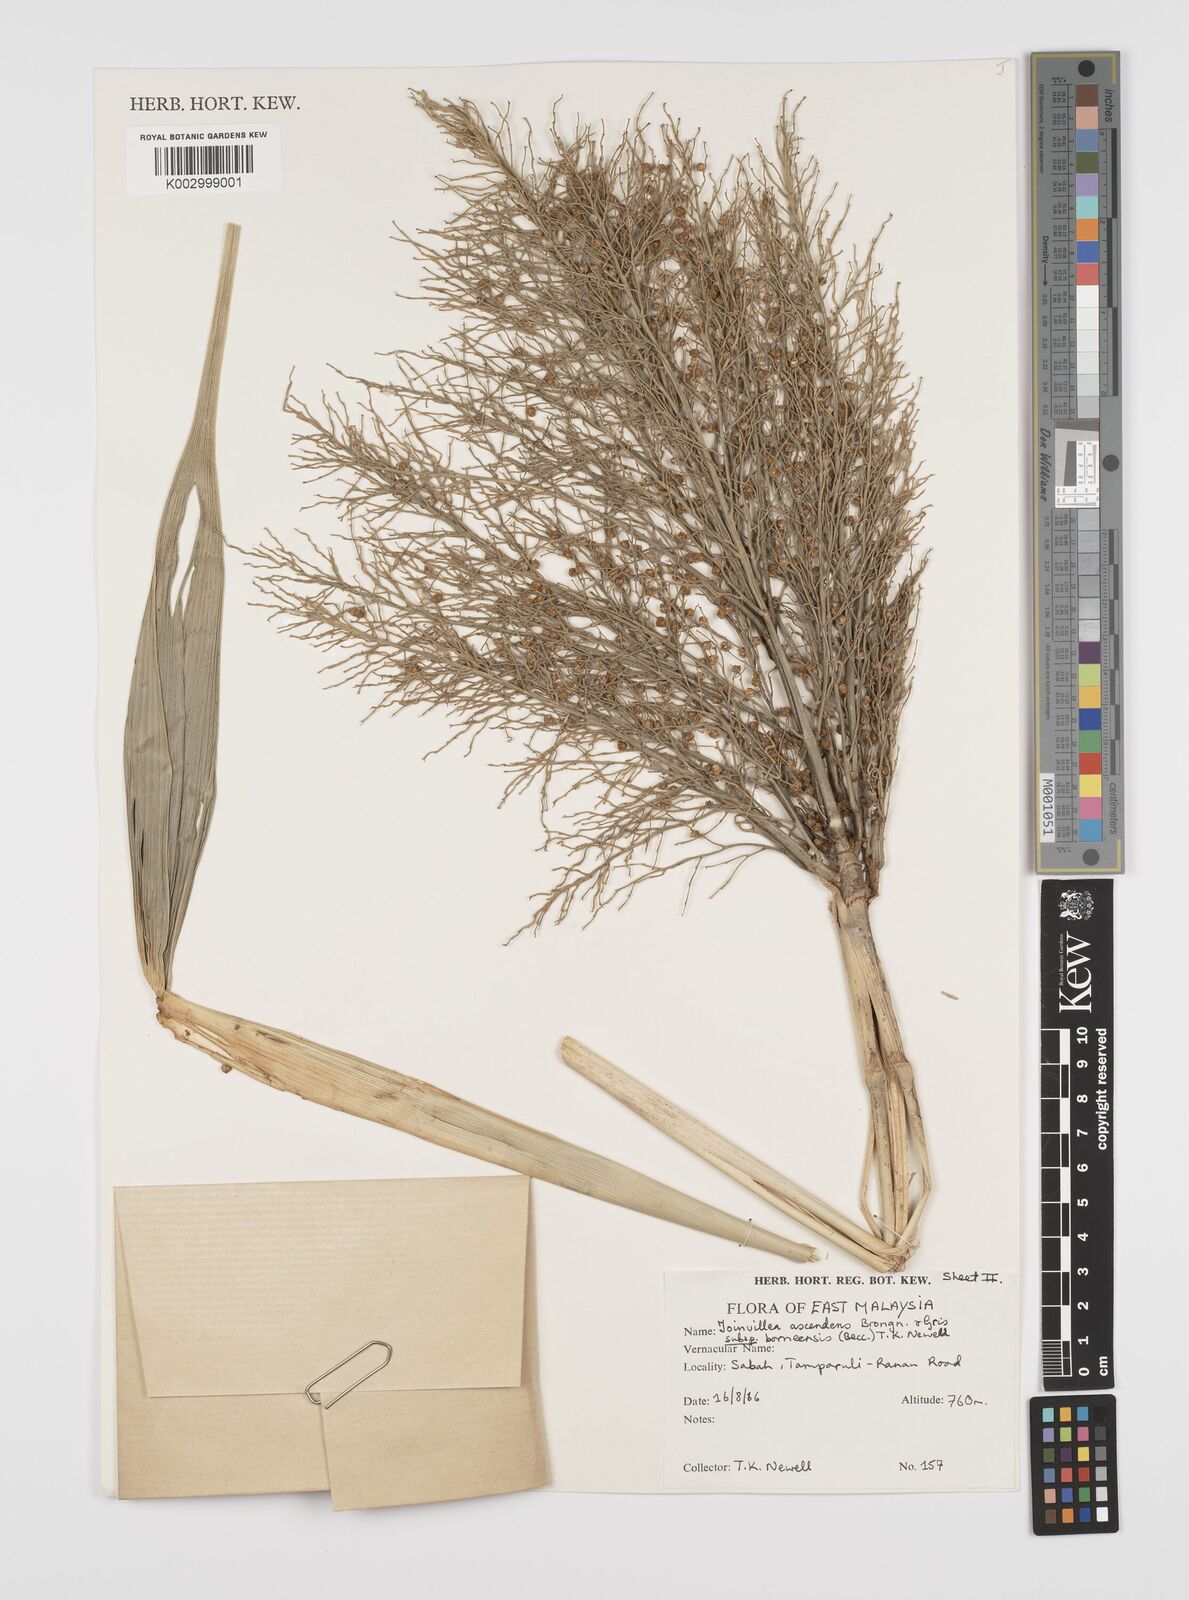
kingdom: Plantae
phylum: Tracheophyta
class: Liliopsida
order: Poales
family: Joinvilleaceae
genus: Joinvillea
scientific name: Joinvillea borneensis
